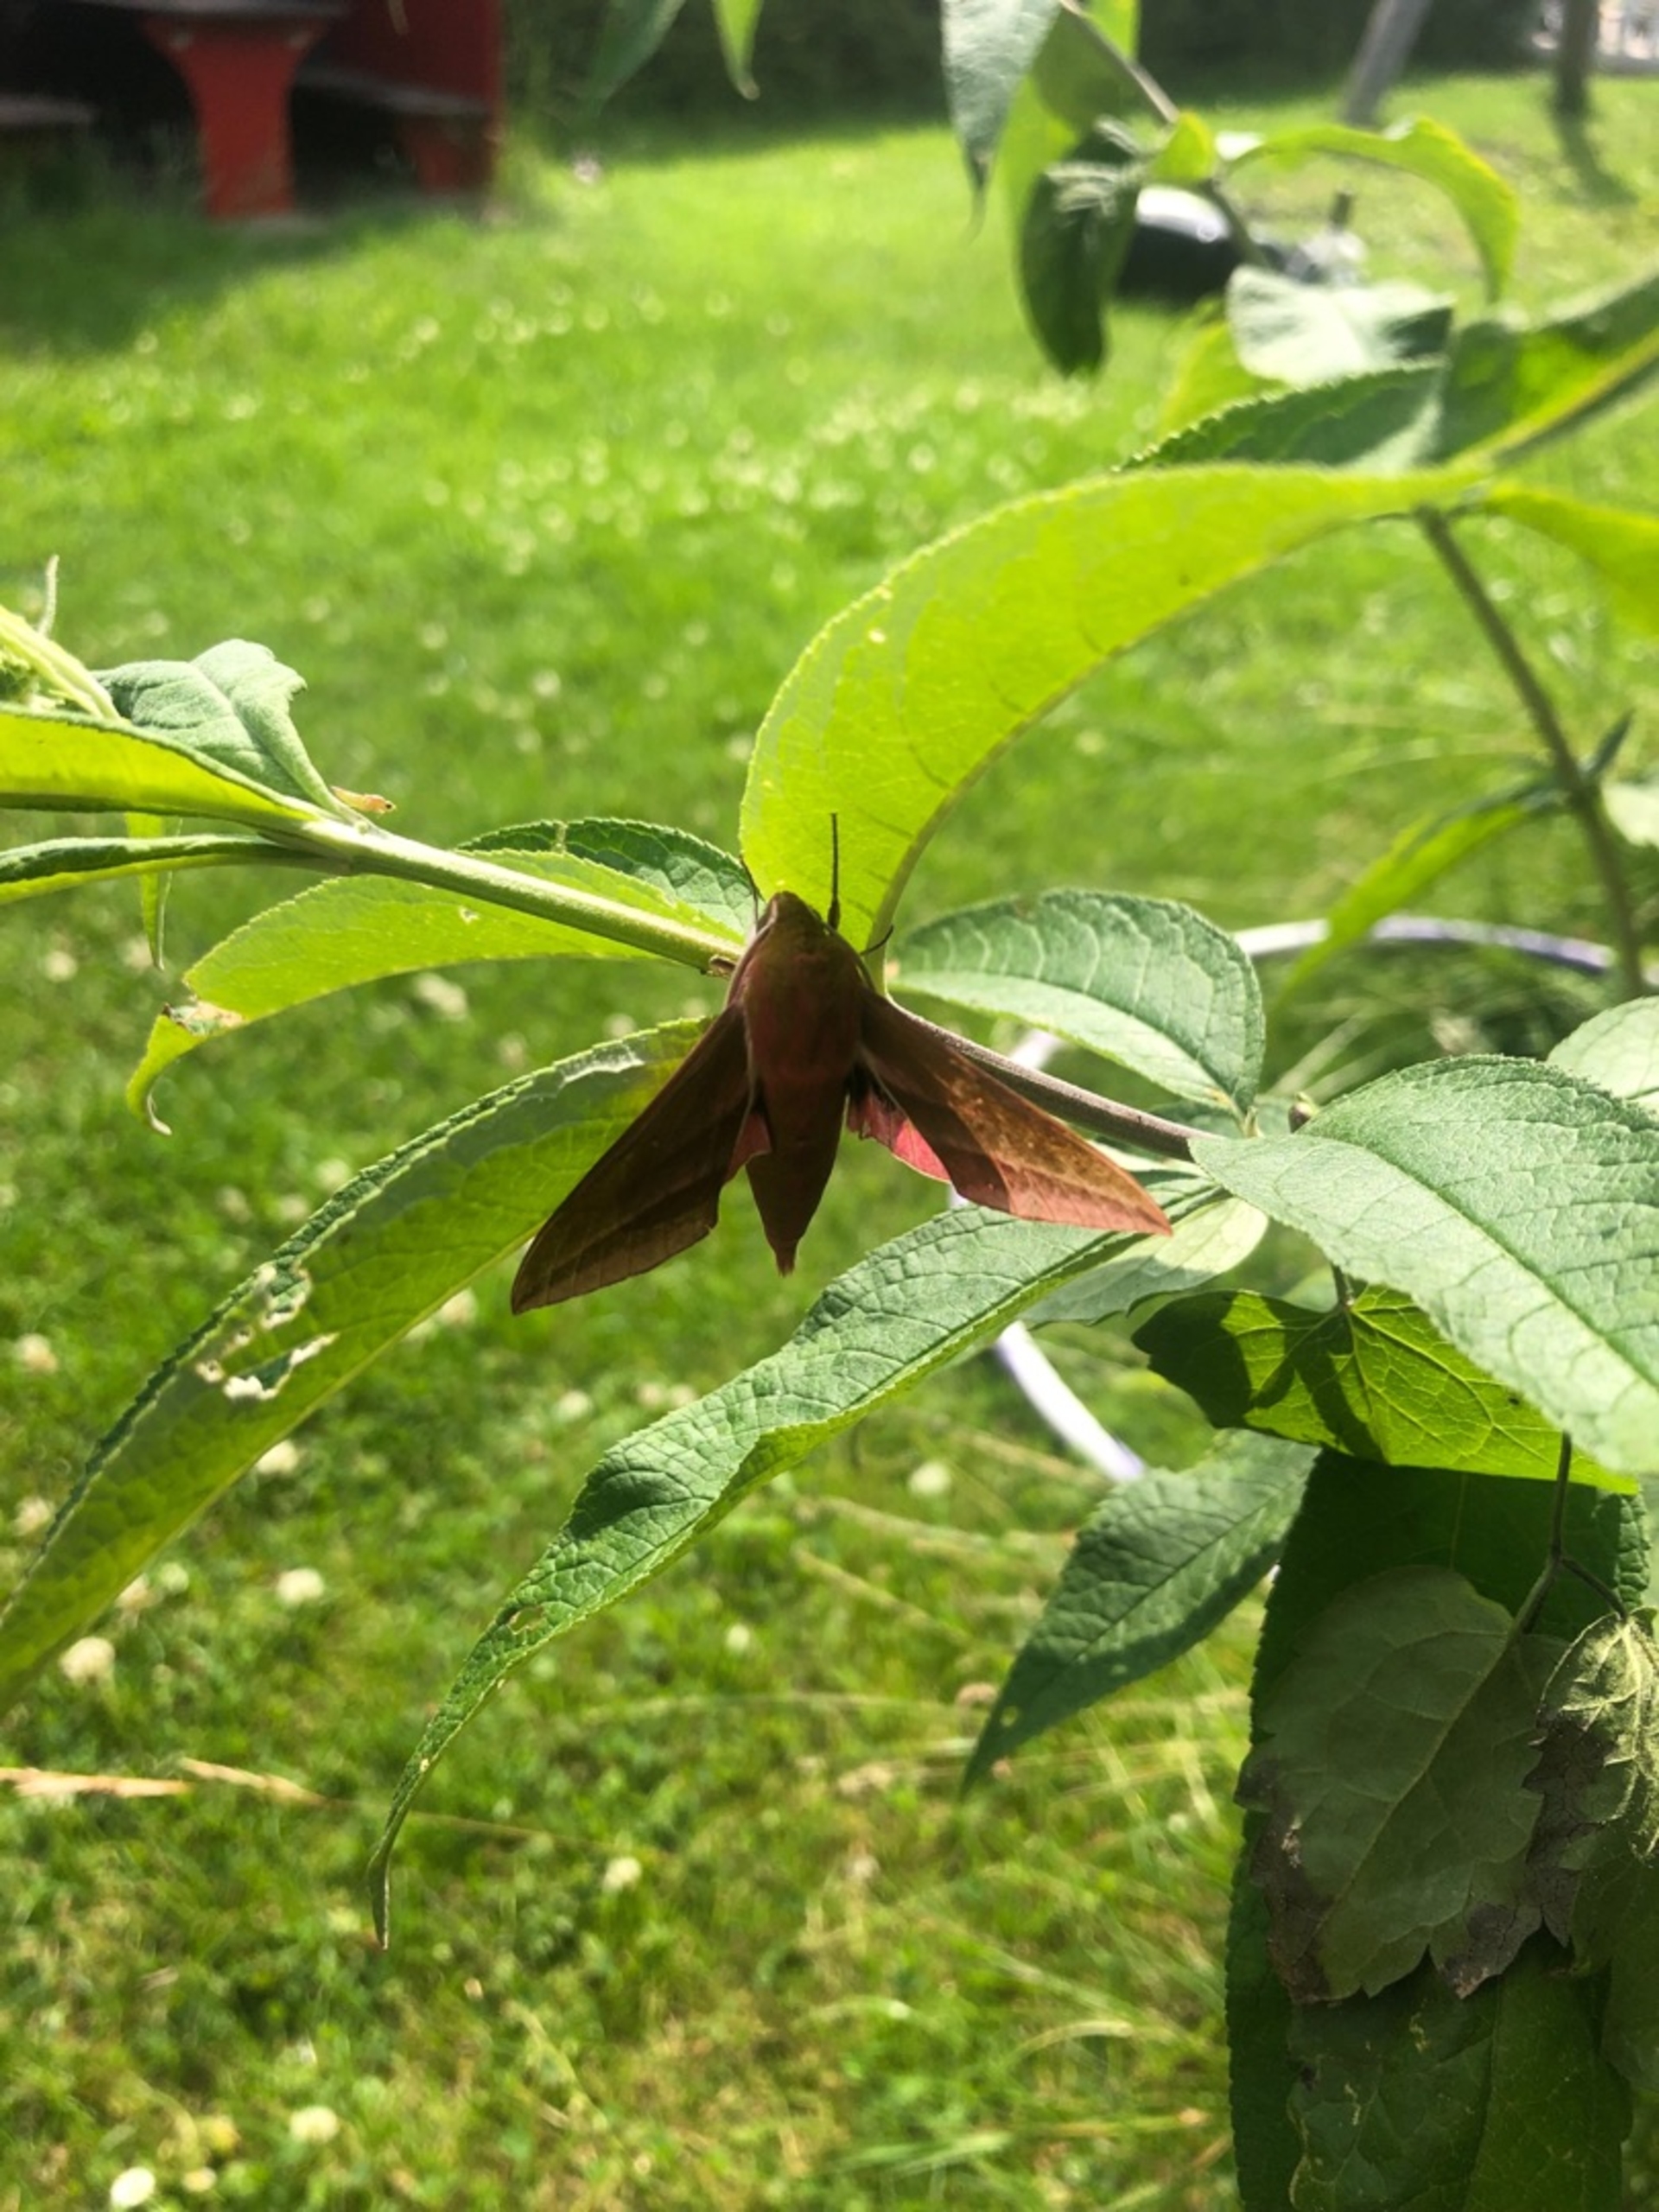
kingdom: Animalia
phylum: Arthropoda
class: Insecta
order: Lepidoptera
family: Sphingidae
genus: Deilephila
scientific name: Deilephila elpenor
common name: Dueurtsværmer
